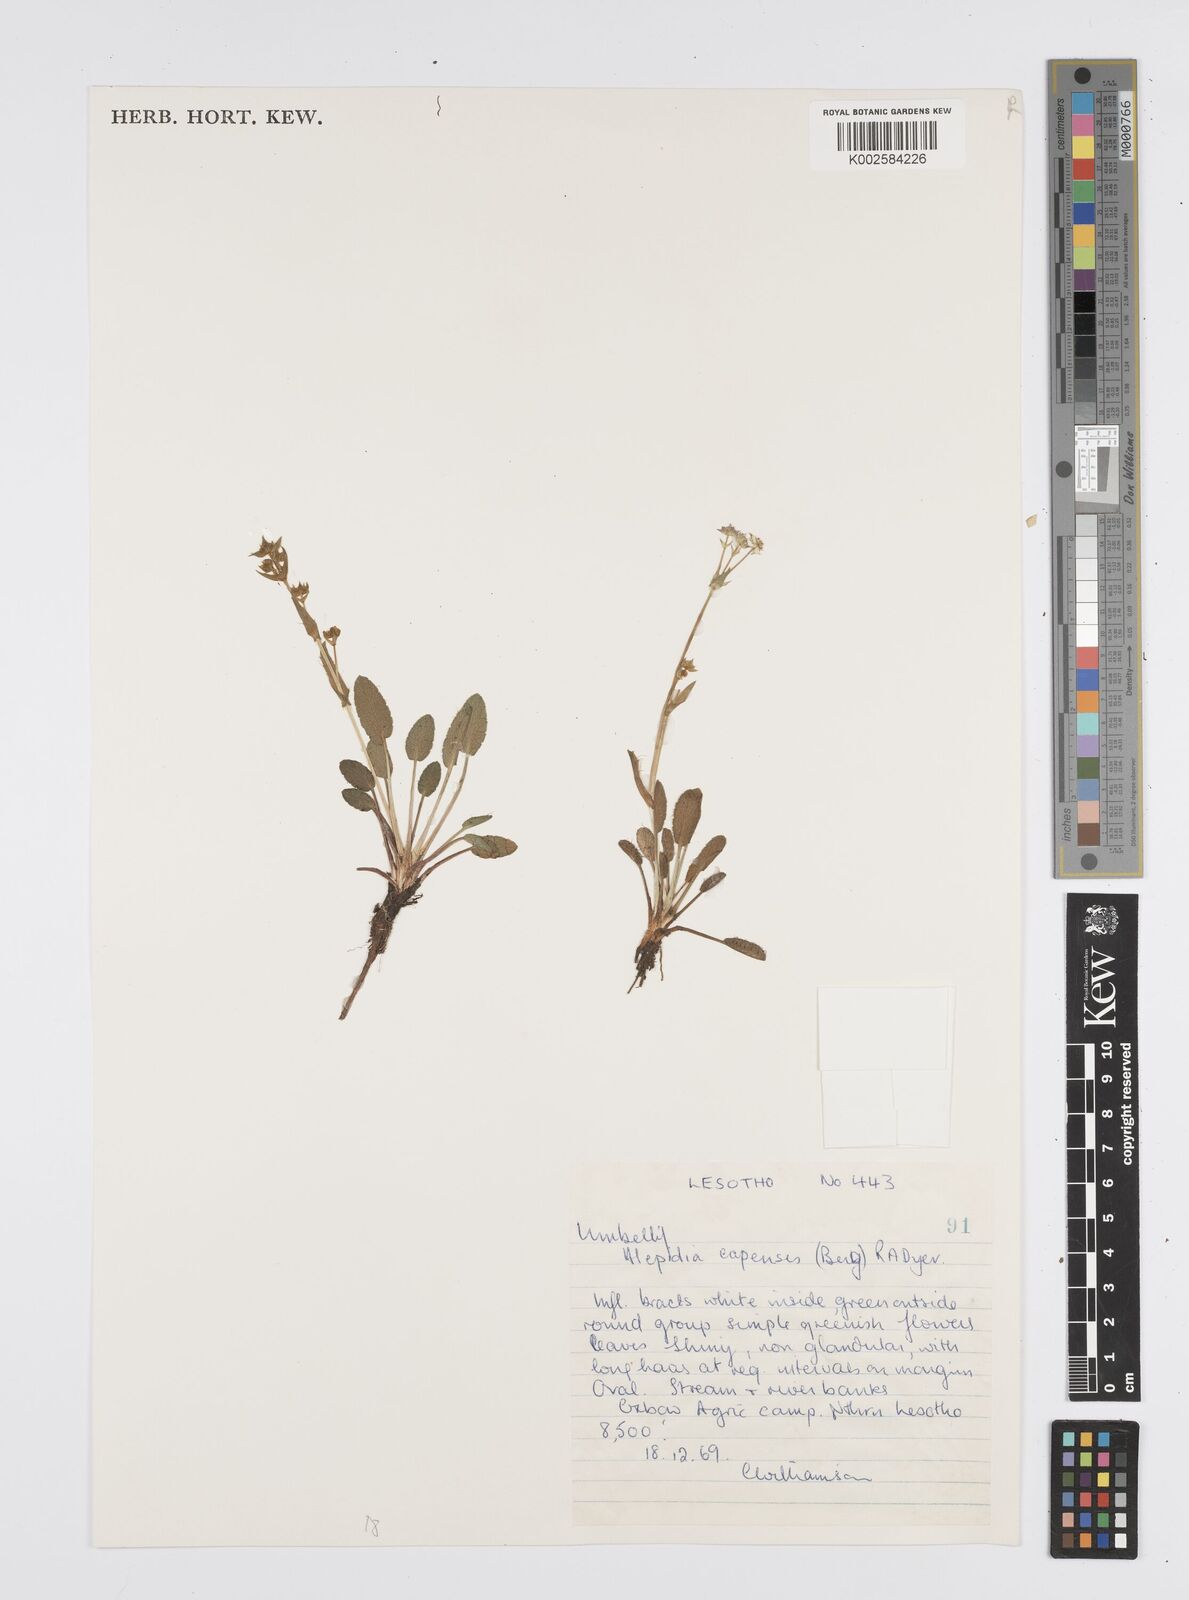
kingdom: Plantae
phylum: Tracheophyta
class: Magnoliopsida
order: Apiales
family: Apiaceae
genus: Alepidea
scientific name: Alepidea pusilla
